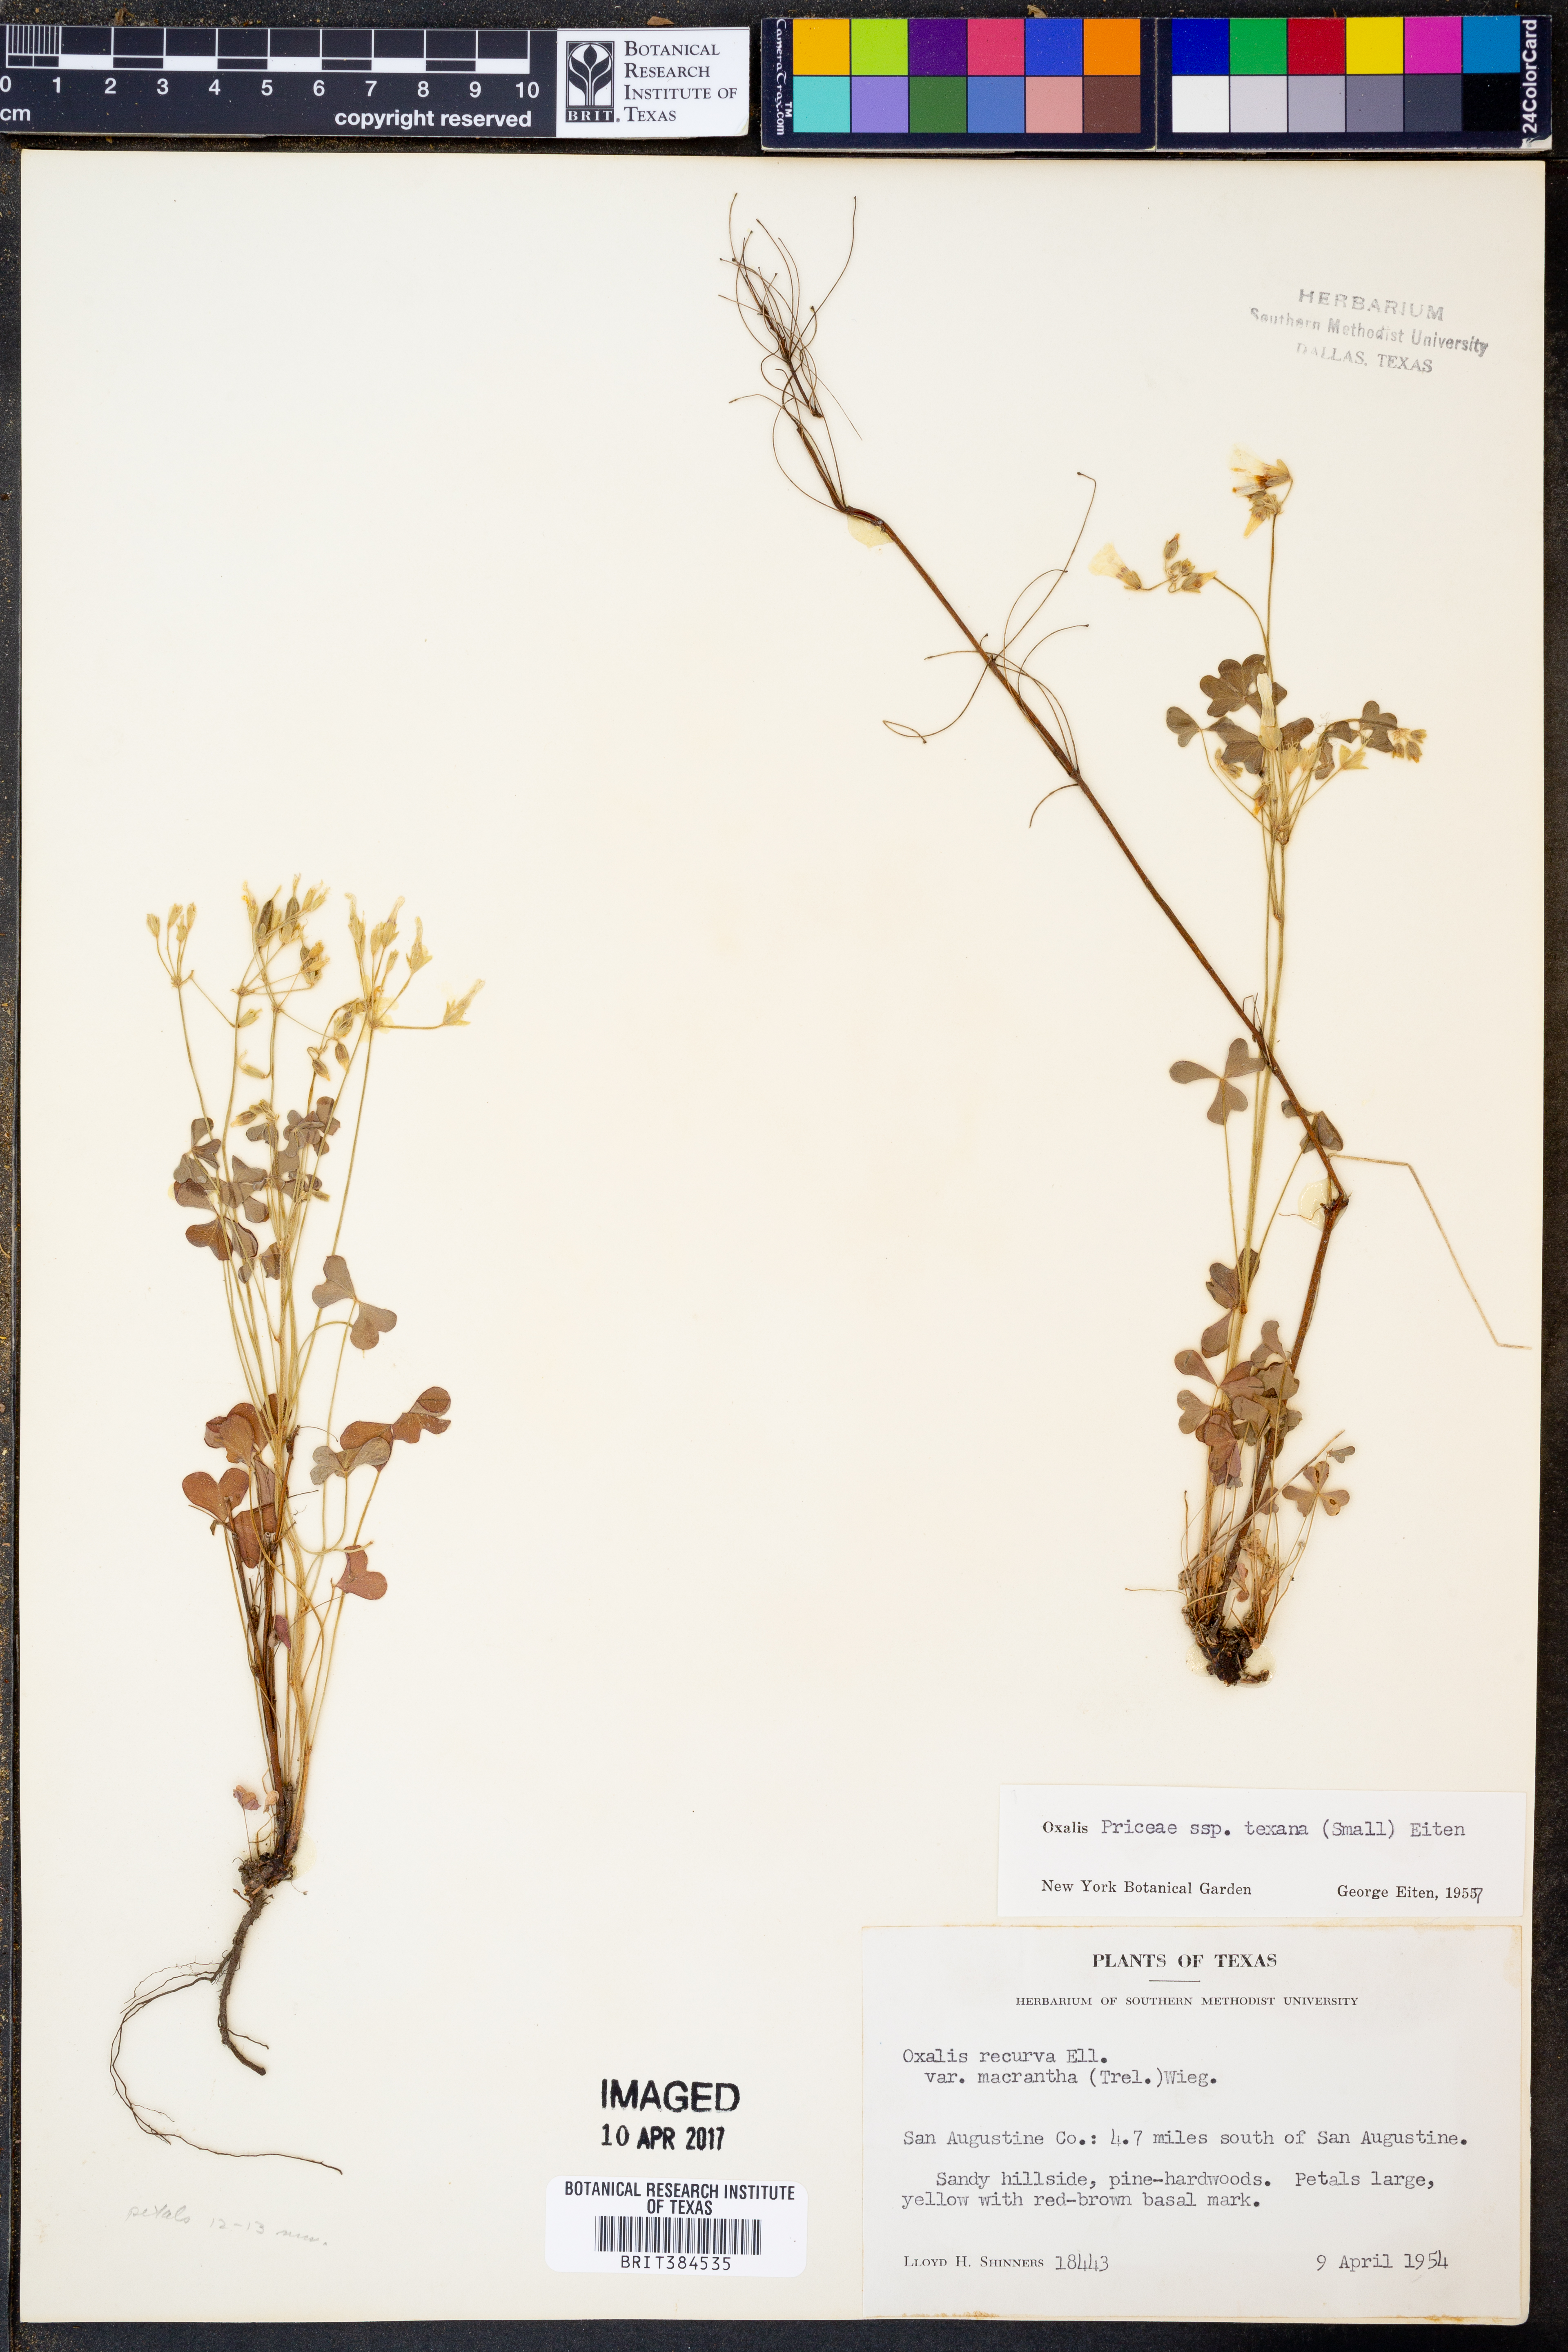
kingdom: Plantae
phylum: Tracheophyta
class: Magnoliopsida
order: Oxalidales
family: Oxalidaceae
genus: Oxalis
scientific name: Oxalis texana
